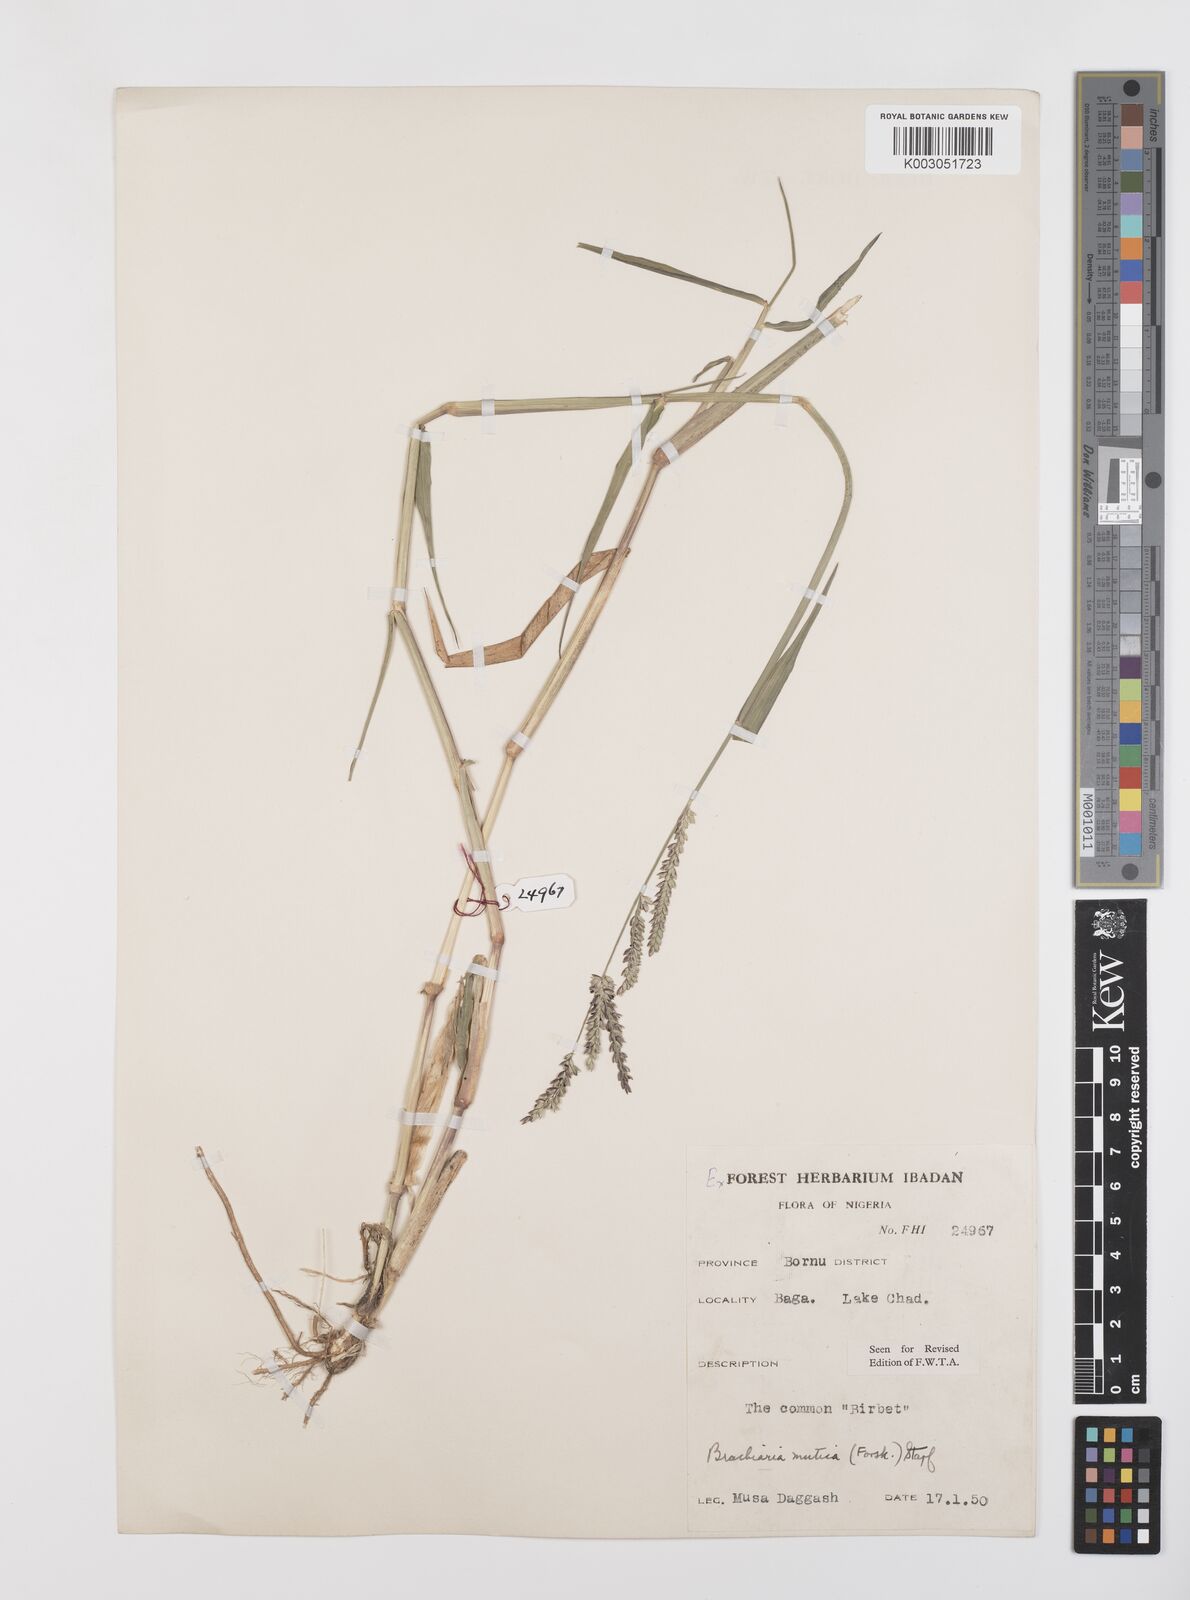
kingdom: Plantae
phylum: Tracheophyta
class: Liliopsida
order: Poales
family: Poaceae
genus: Urochloa
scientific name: Urochloa mutica
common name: Para grass
